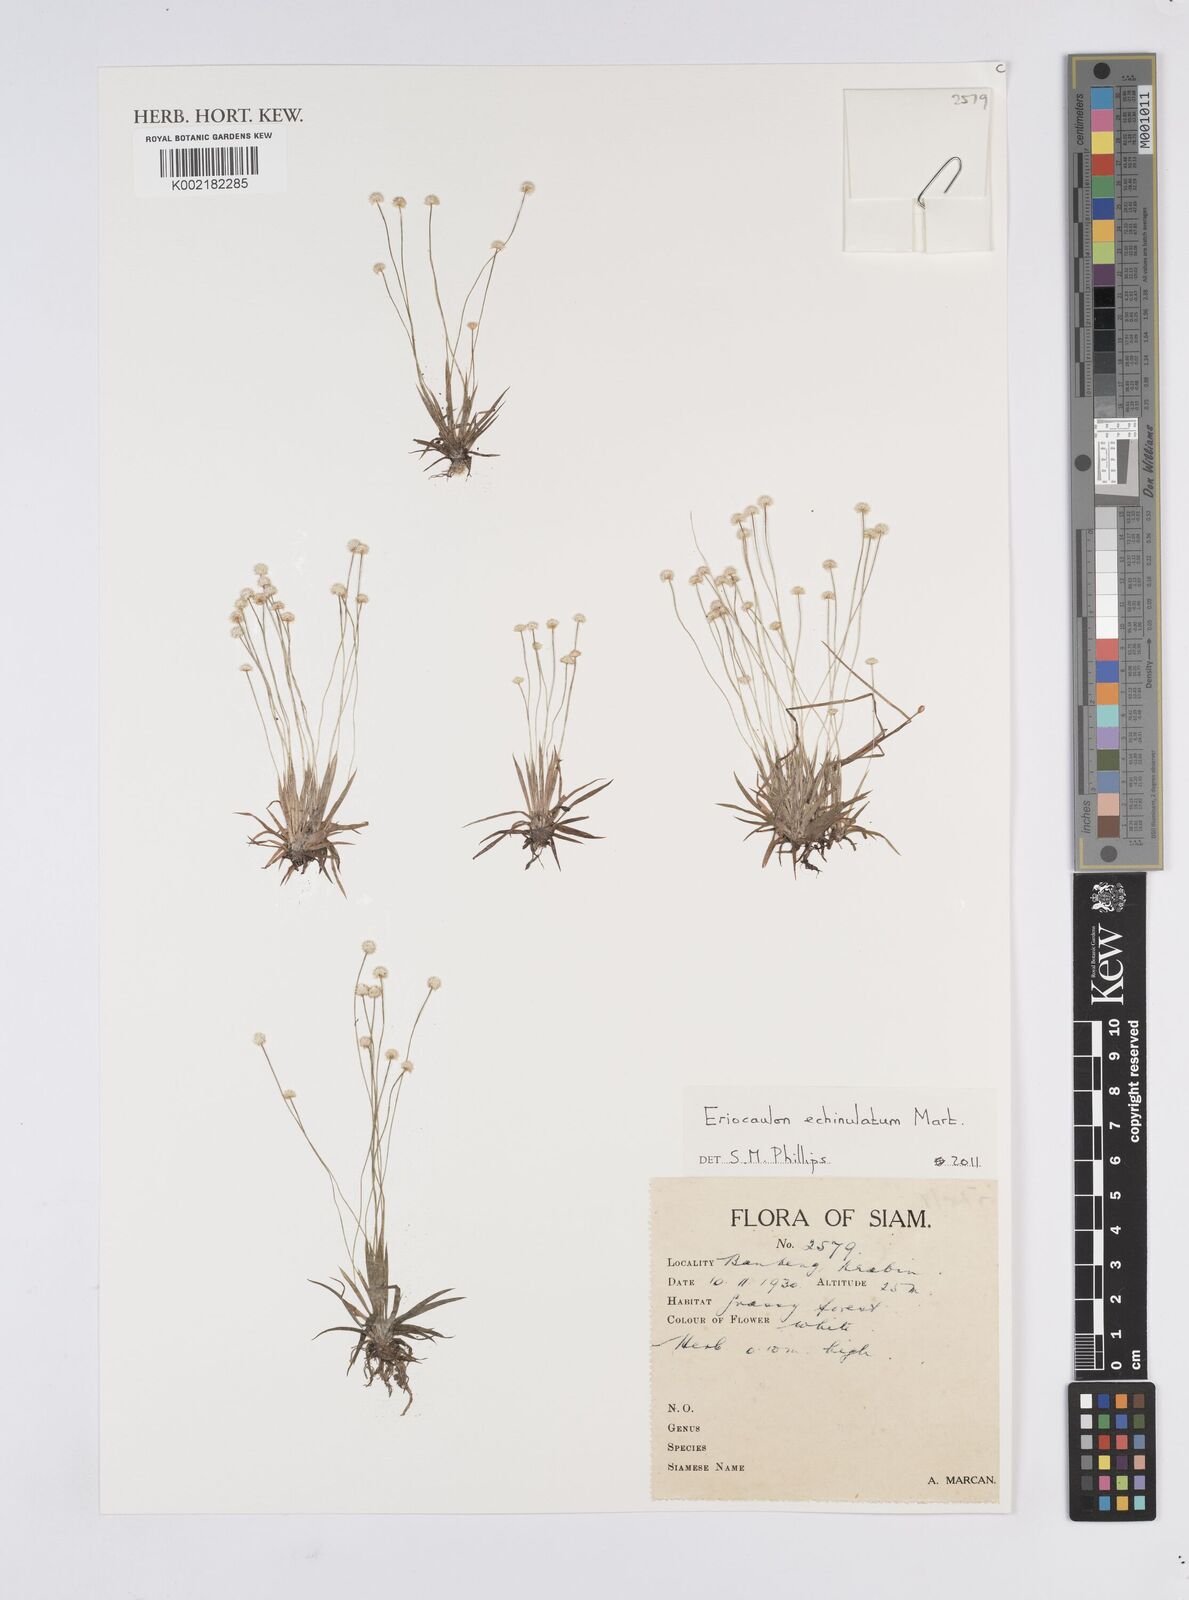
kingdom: Plantae
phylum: Tracheophyta
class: Liliopsida
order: Poales
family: Eriocaulaceae
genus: Eriocaulon
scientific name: Eriocaulon echinulatum
